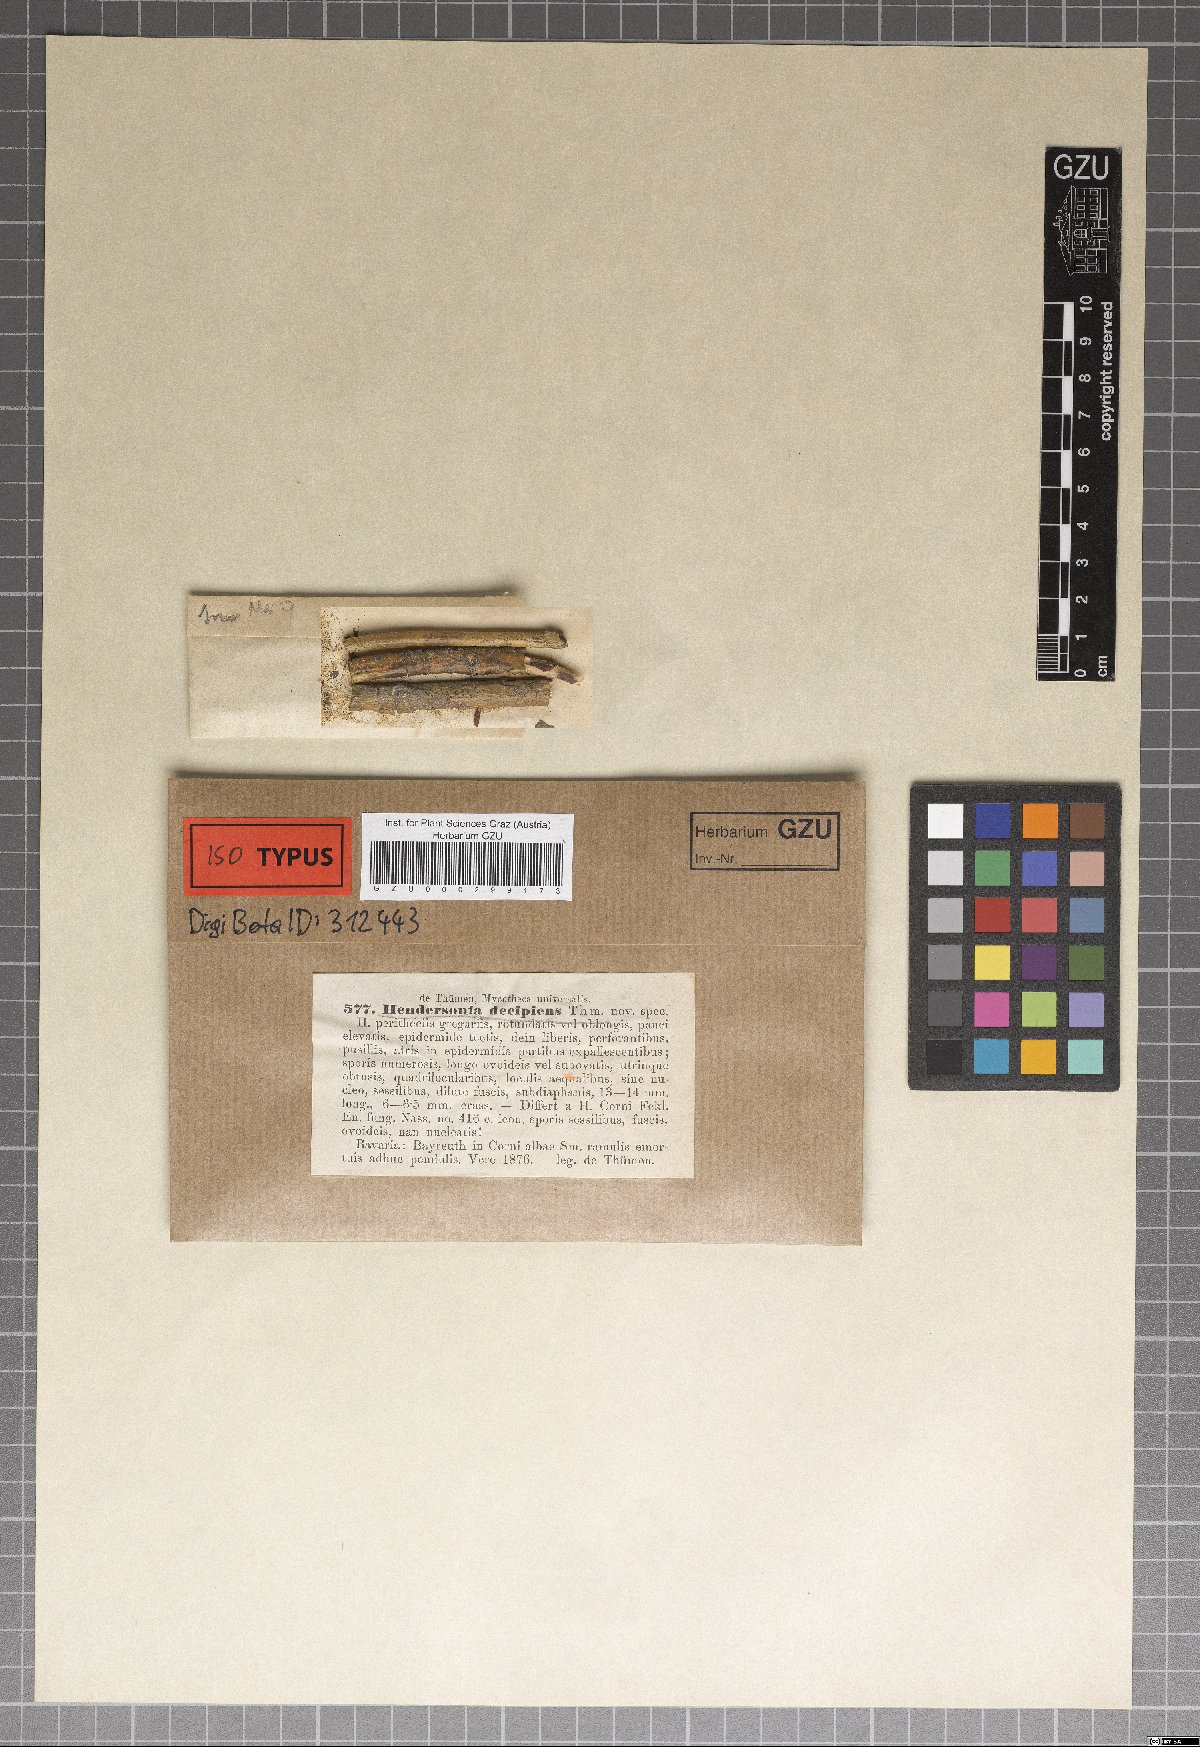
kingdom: Fungi
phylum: Ascomycota
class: Dothideomycetes
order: Pleosporales
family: Phaeosphaeriaceae
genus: Hendersonia
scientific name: Hendersonia
